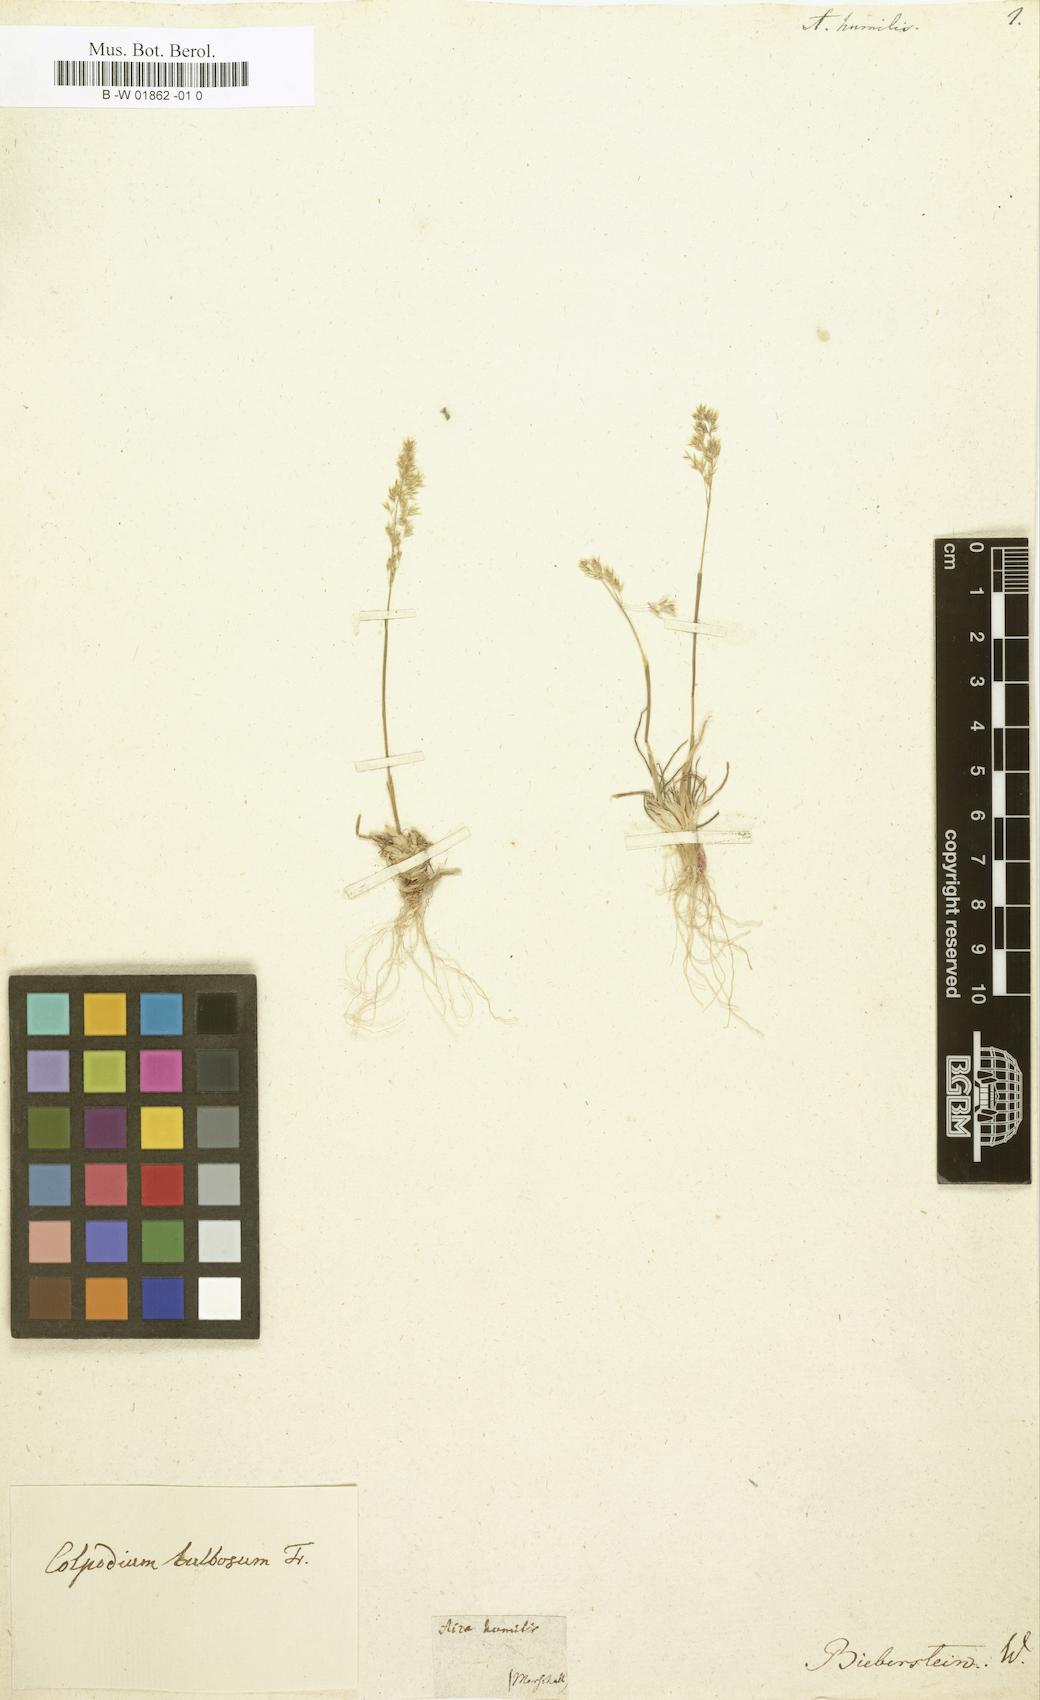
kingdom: Plantae
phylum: Tracheophyta
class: Liliopsida
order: Poales
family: Poaceae
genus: Catabrosella
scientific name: Catabrosella humilis
